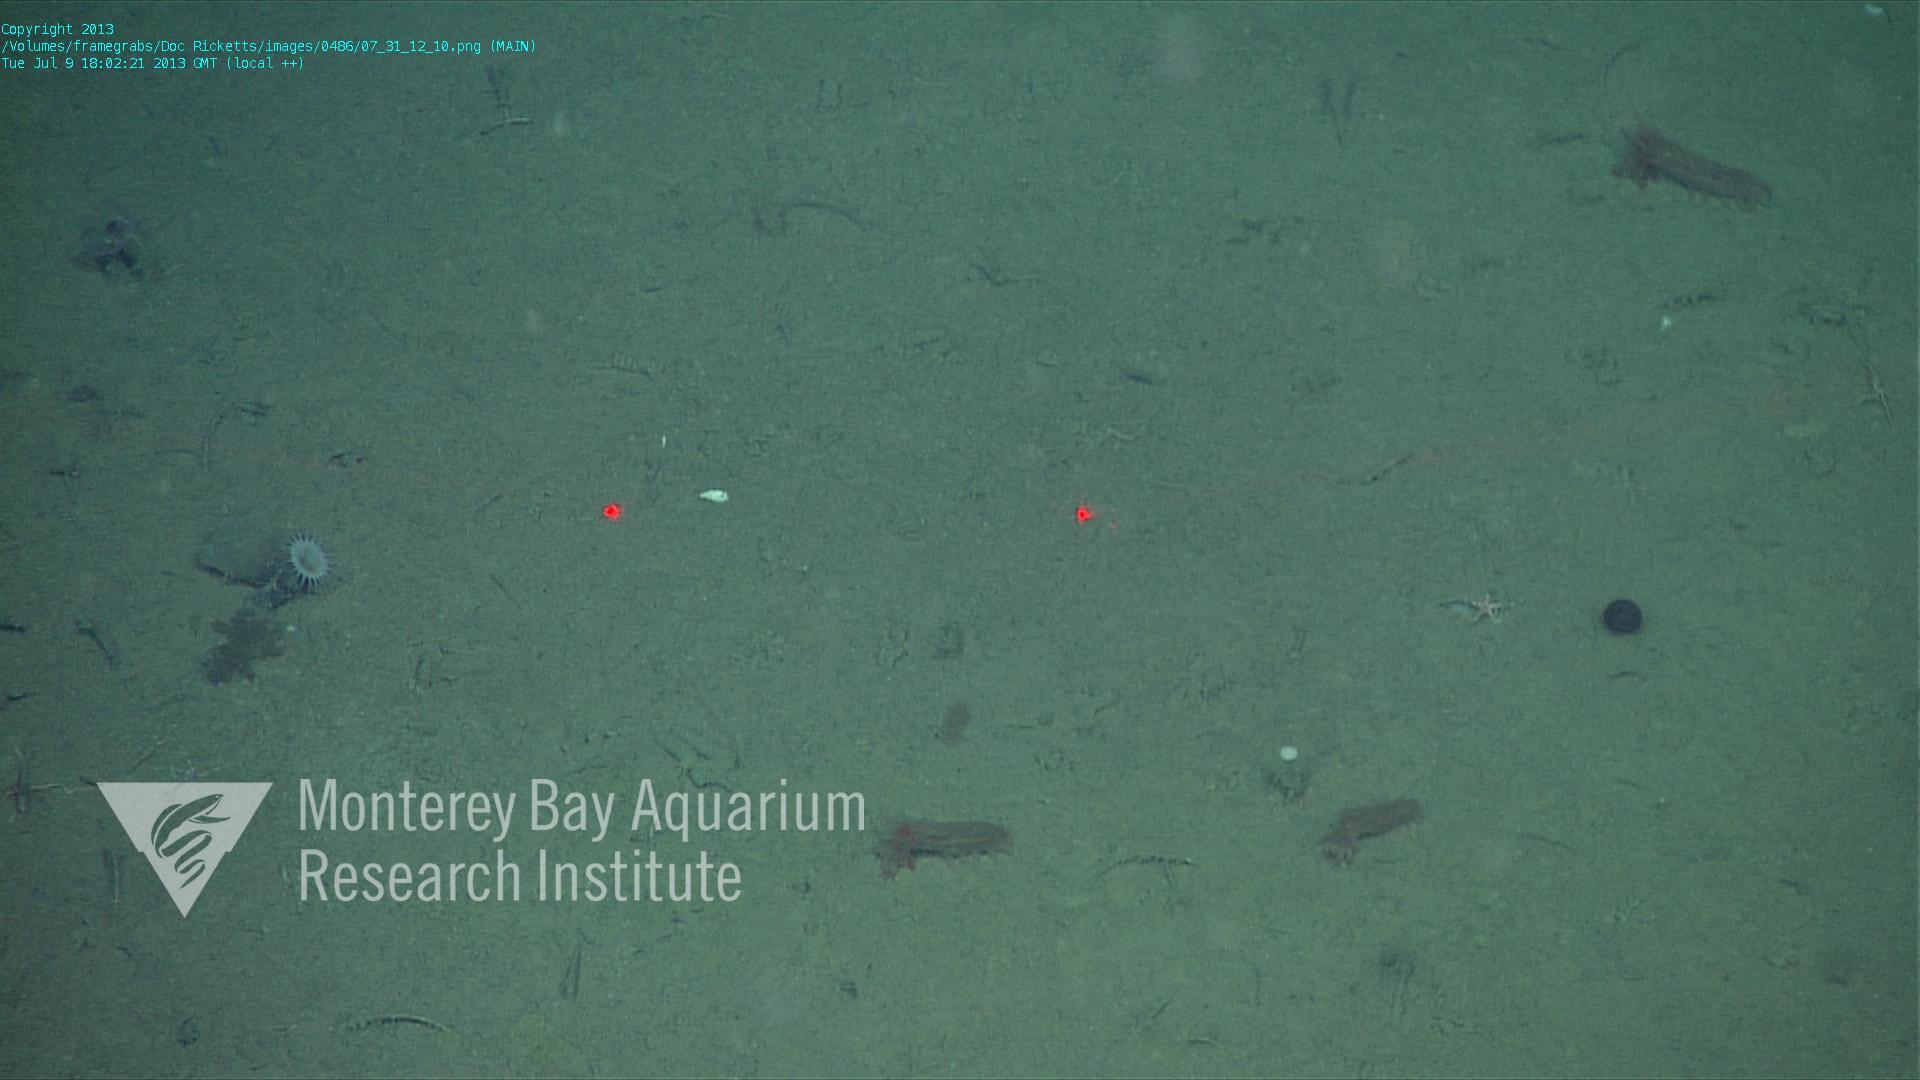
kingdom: Animalia
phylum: Porifera
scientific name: Porifera
